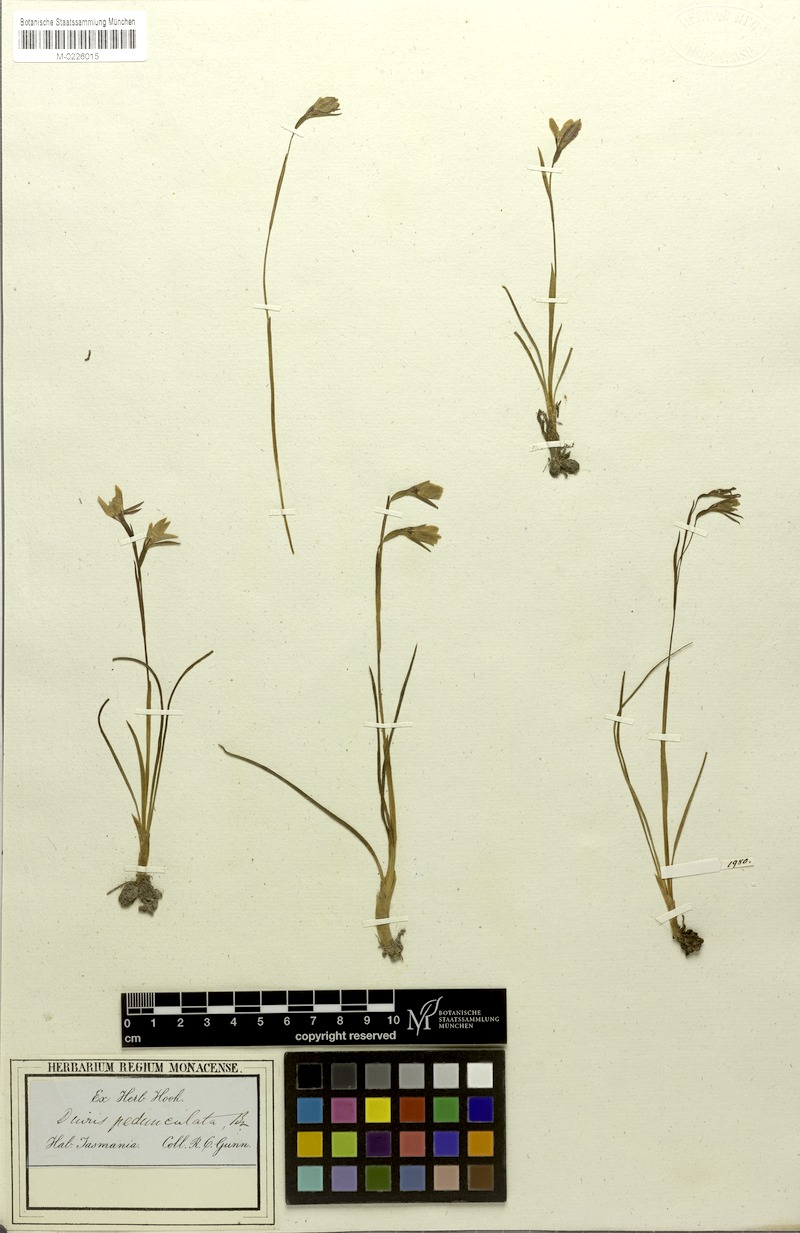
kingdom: Plantae
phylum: Tracheophyta
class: Liliopsida
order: Asparagales
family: Orchidaceae
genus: Diuris
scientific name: Diuris pedunculata
